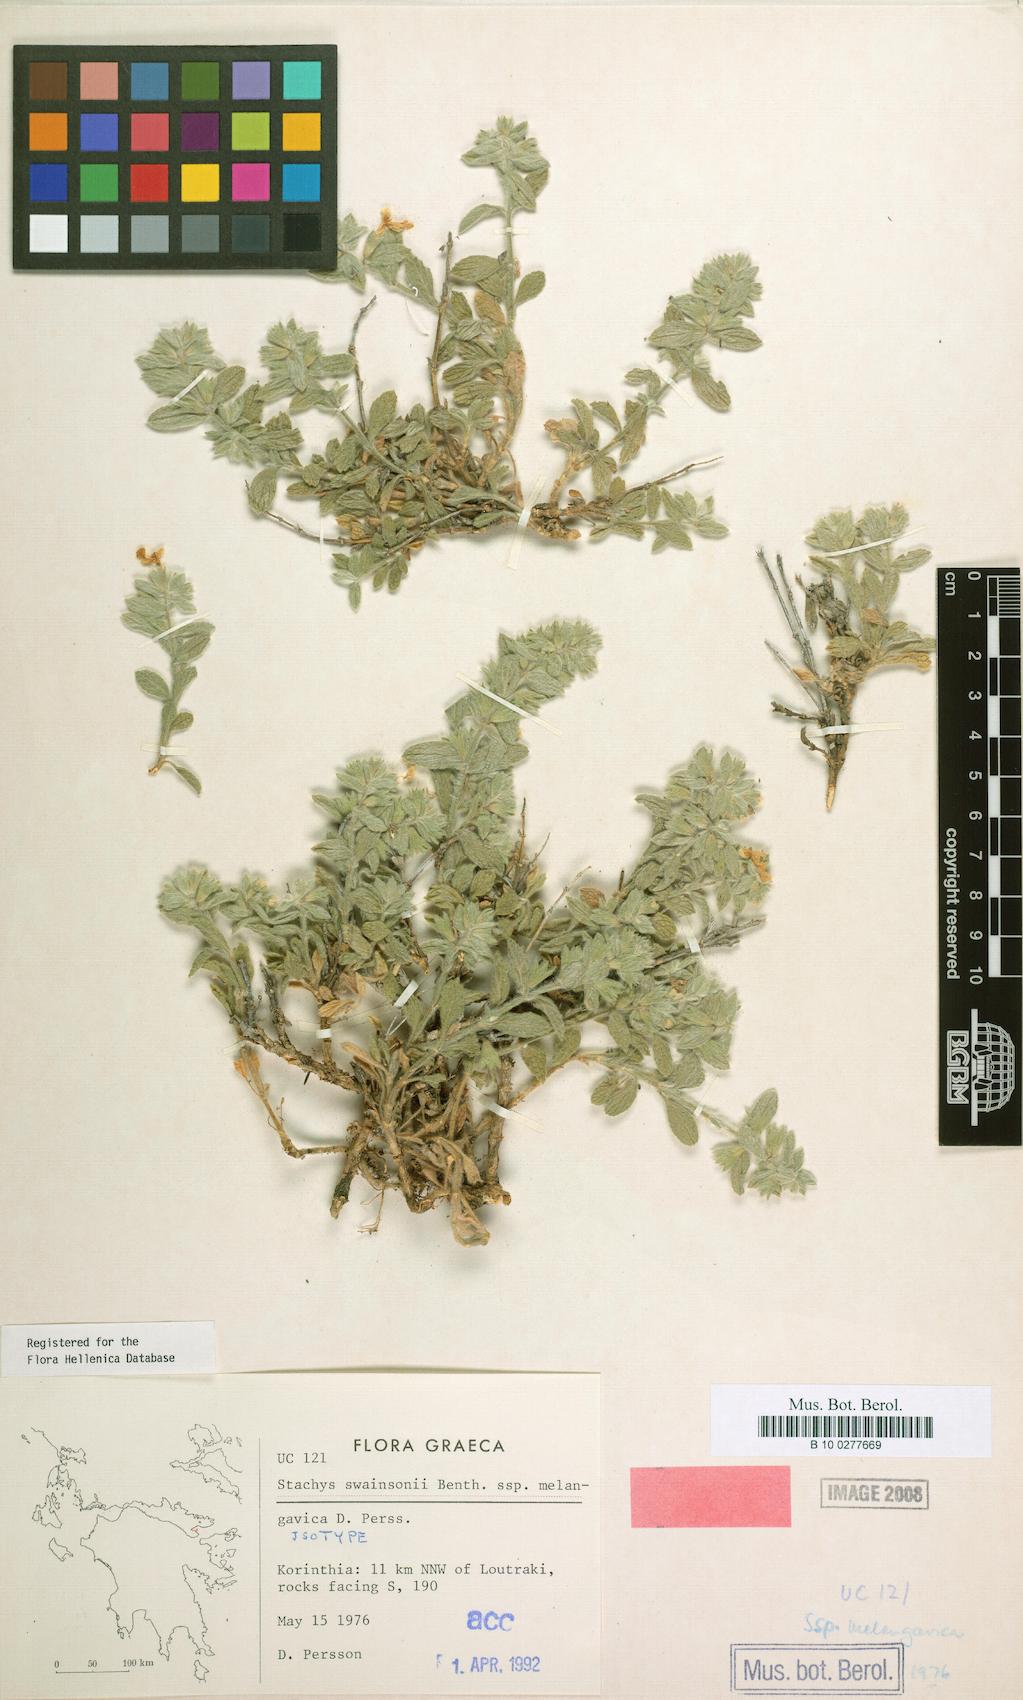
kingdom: Plantae
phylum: Tracheophyta
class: Magnoliopsida
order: Lamiales
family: Lamiaceae
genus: Stachys
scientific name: Stachys swainsonii
